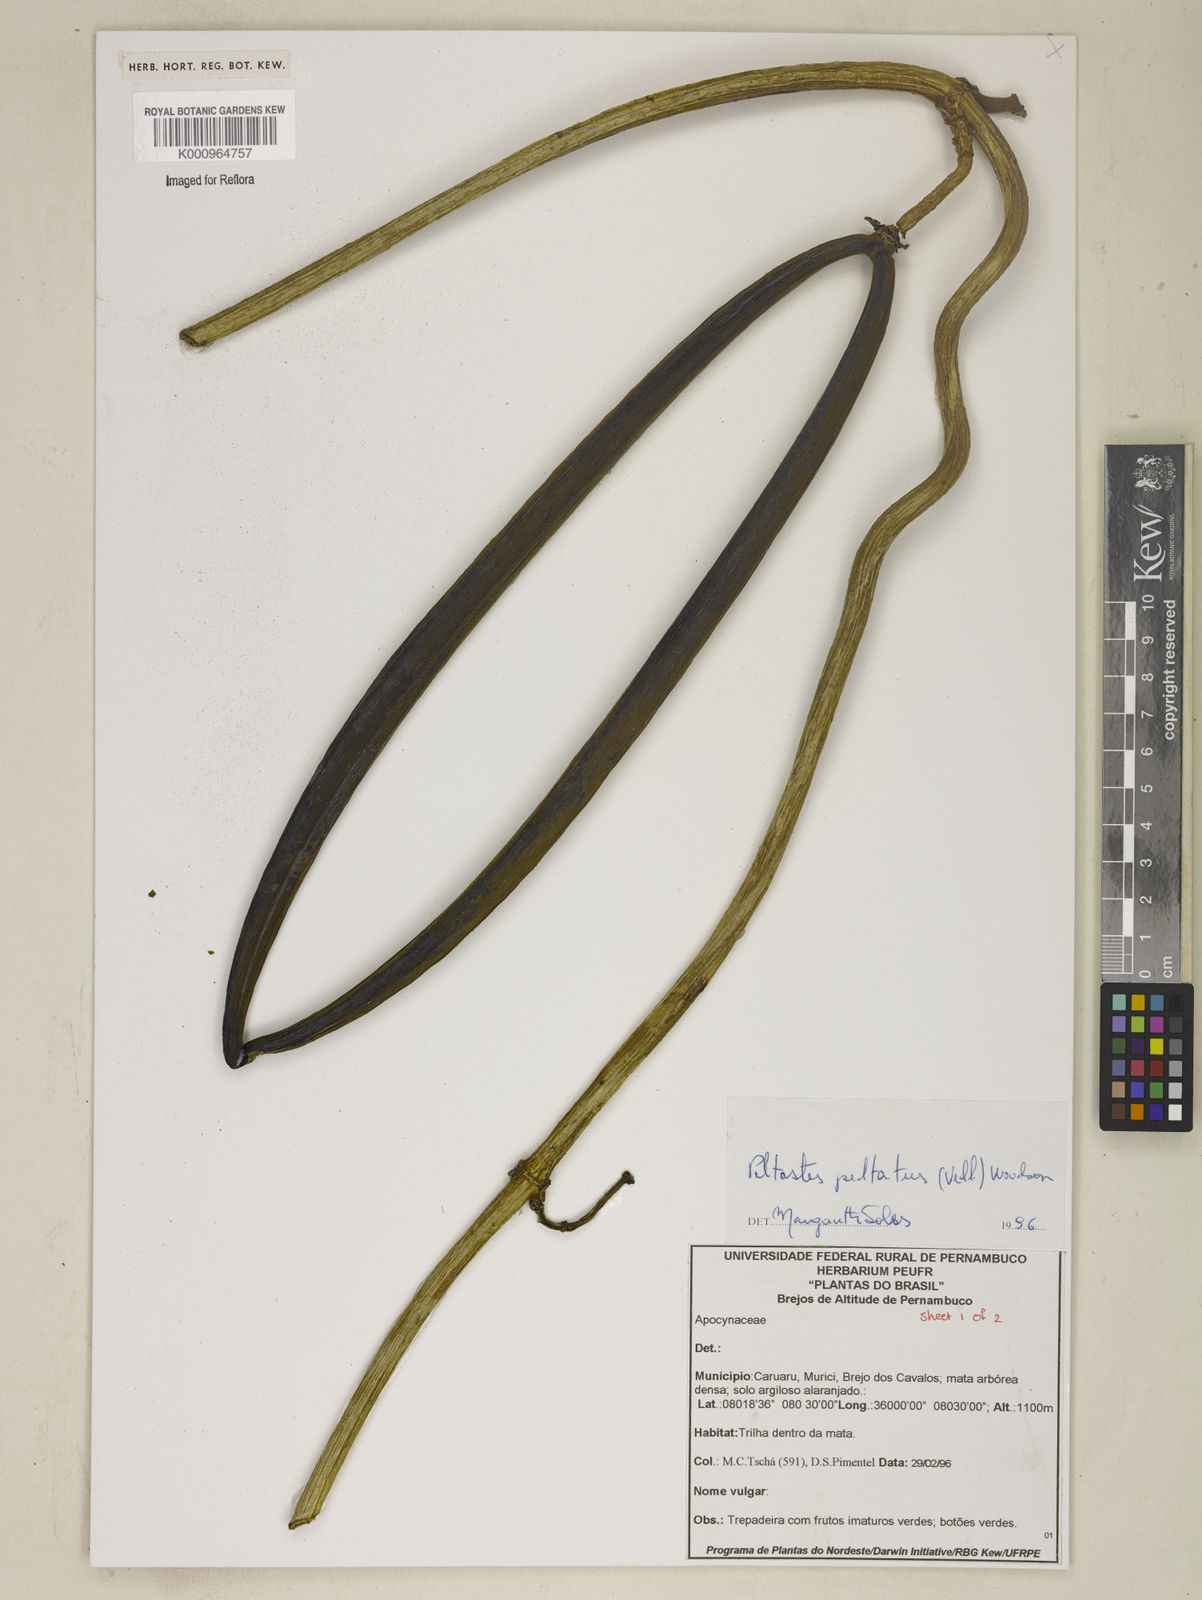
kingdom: Plantae
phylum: Tracheophyta
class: Magnoliopsida
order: Gentianales
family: Apocynaceae
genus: Macropharynx
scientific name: Macropharynx peltata
